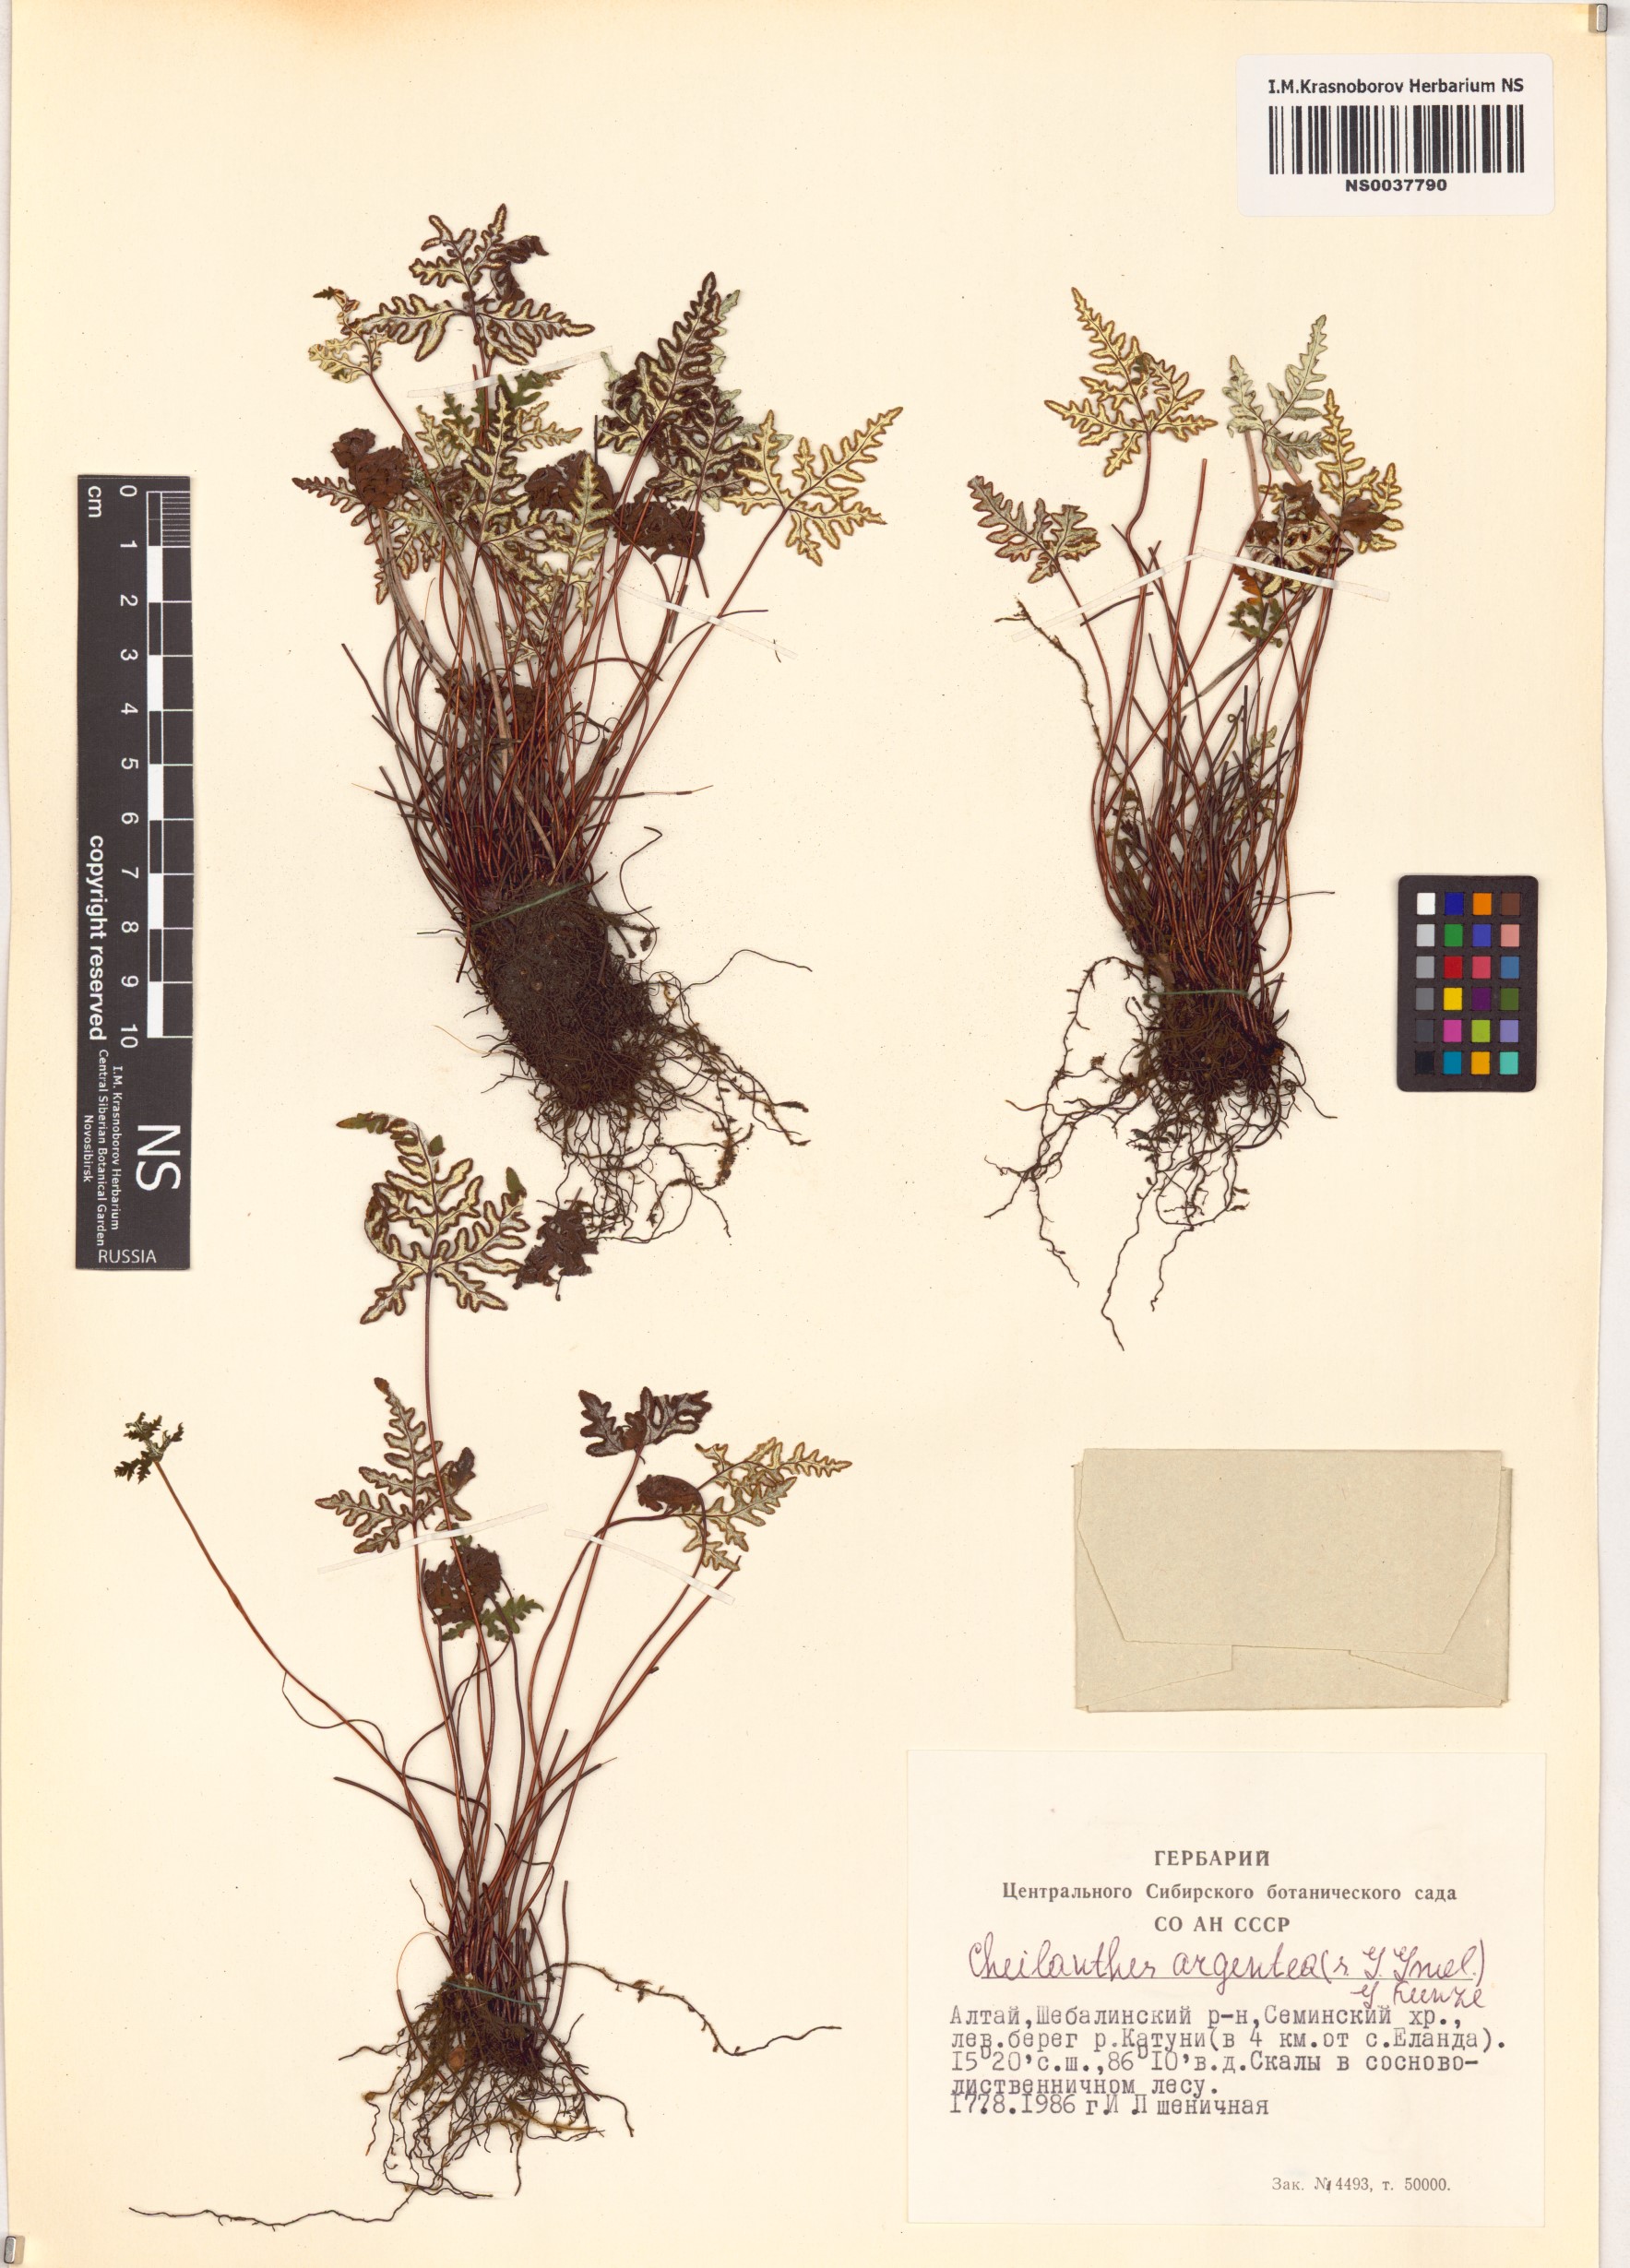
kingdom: Plantae
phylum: Tracheophyta
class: Polypodiopsida
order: Polypodiales
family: Pteridaceae
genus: Aleuritopteris
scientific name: Aleuritopteris argentea
